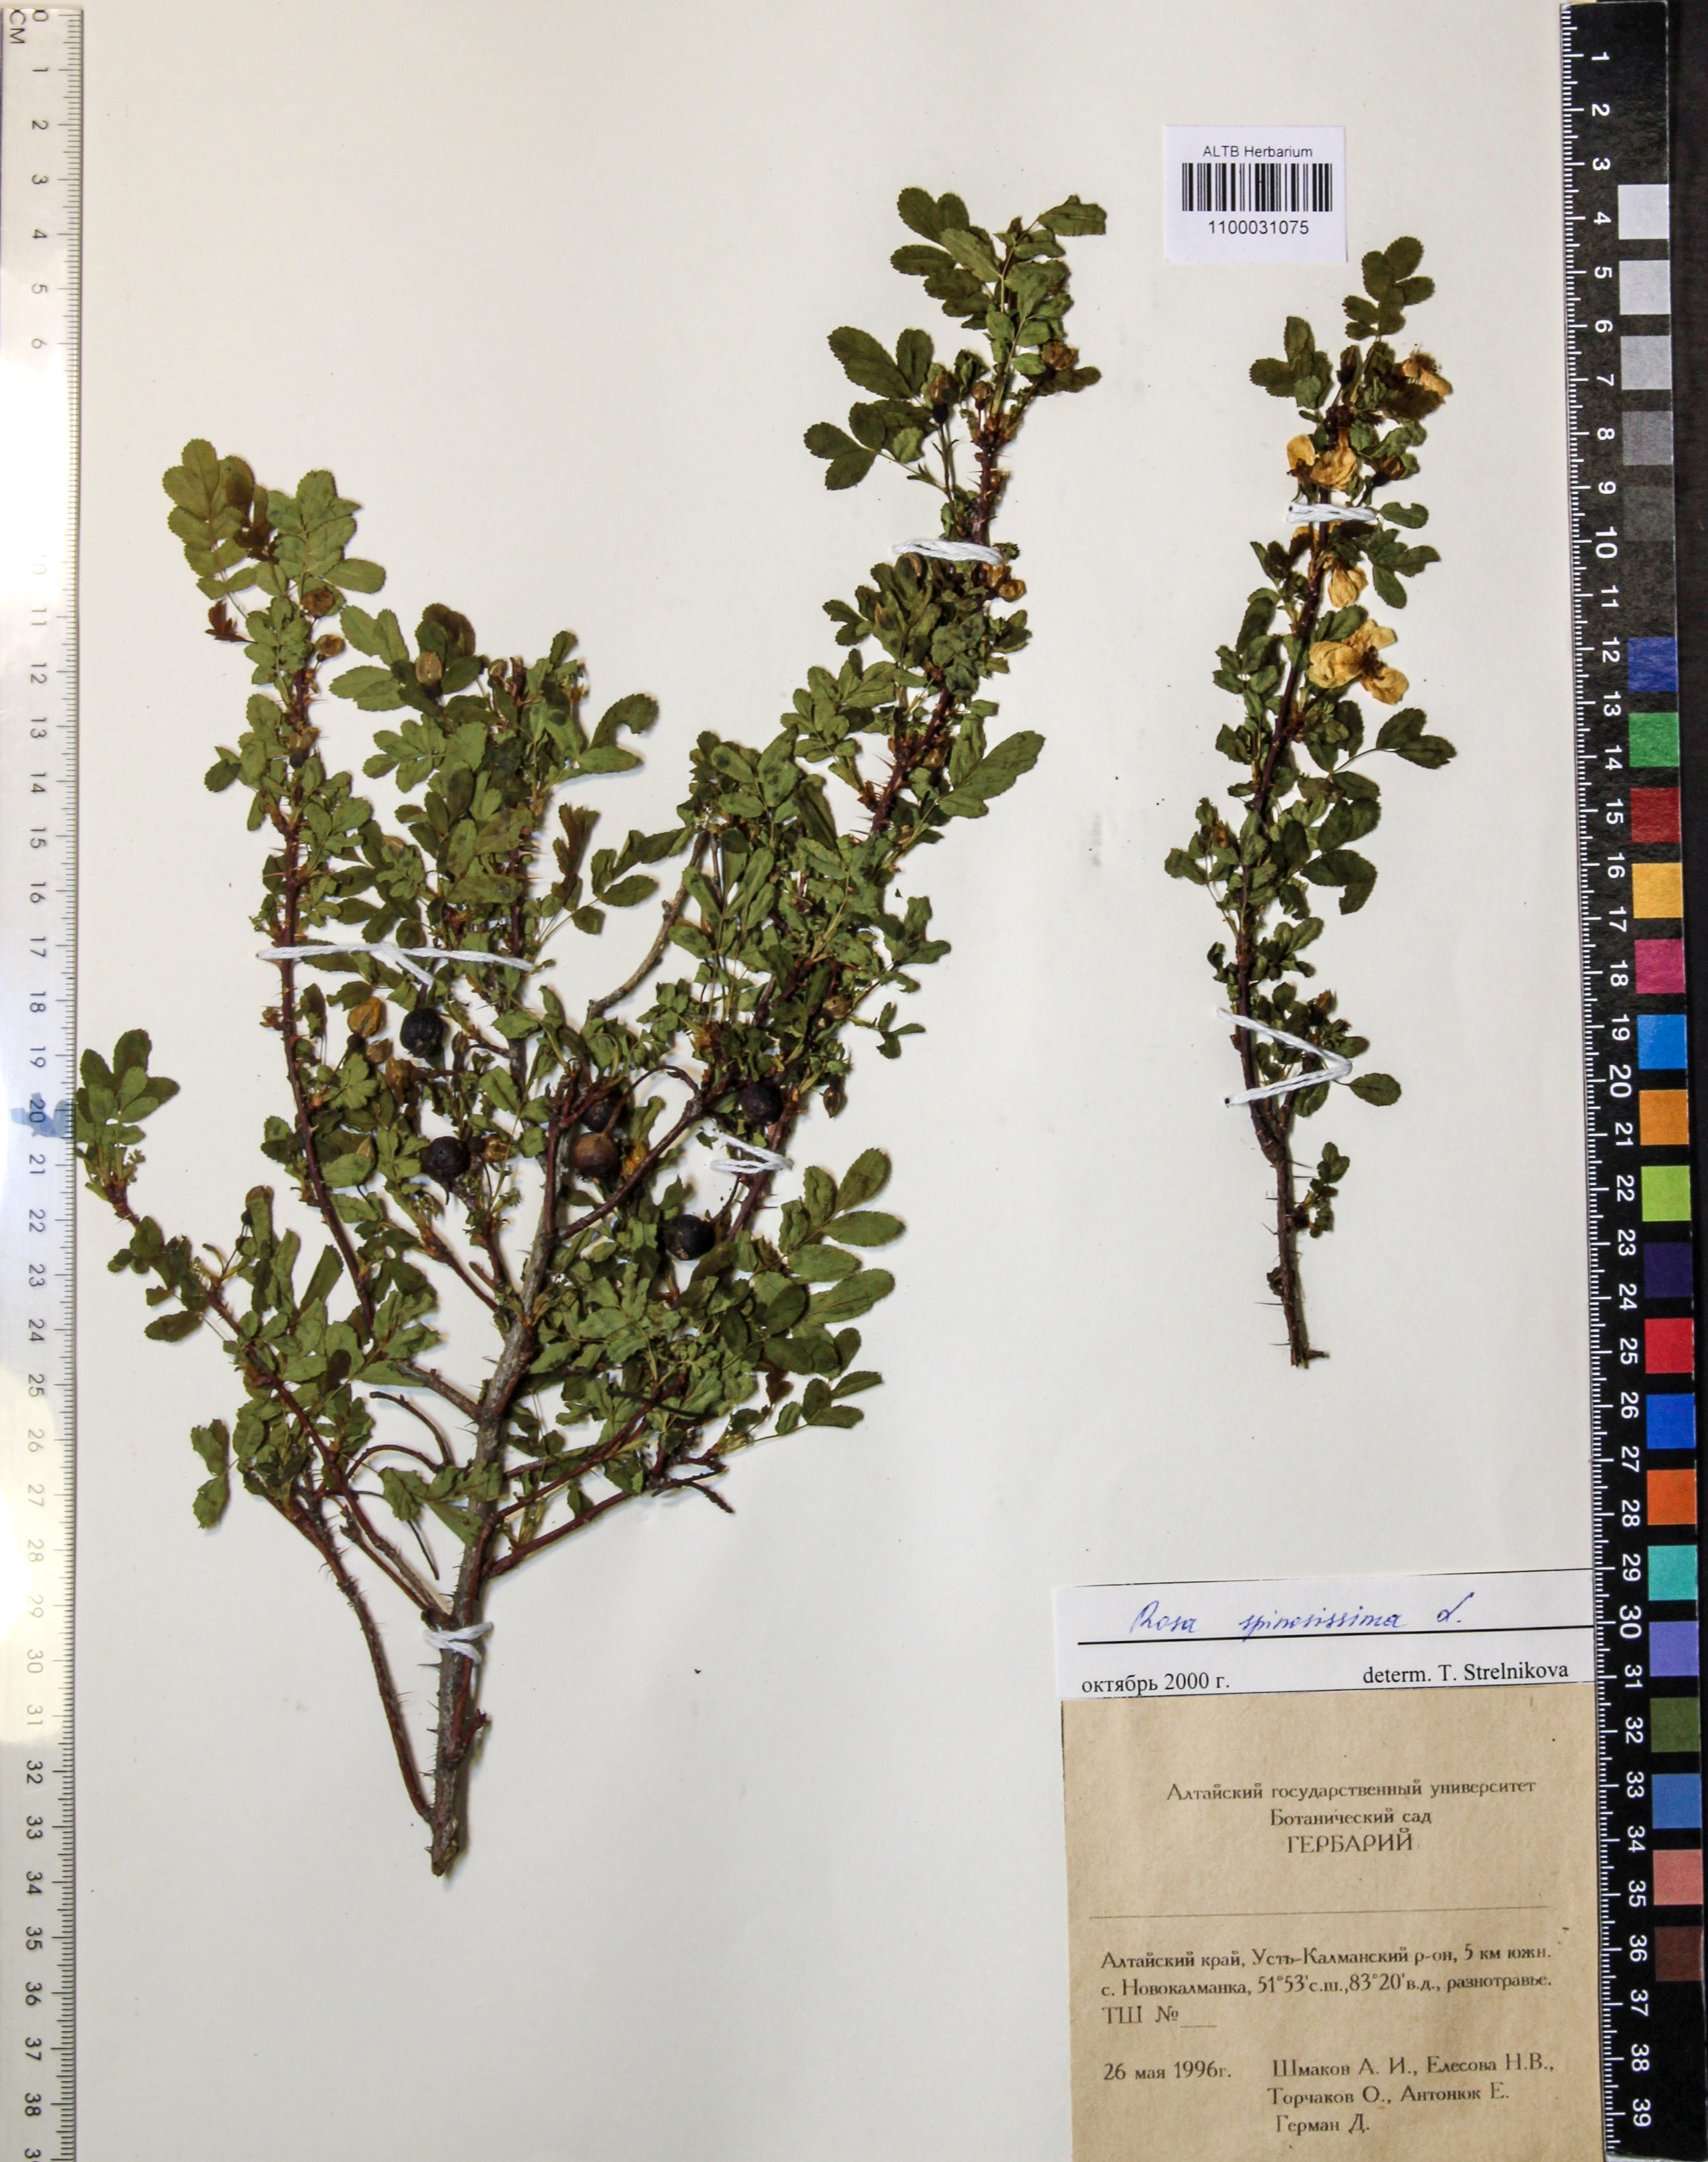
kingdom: Plantae
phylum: Tracheophyta
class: Magnoliopsida
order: Rosales
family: Rosaceae
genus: Rosa
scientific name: Rosa spinosissima
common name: Burnet rose
